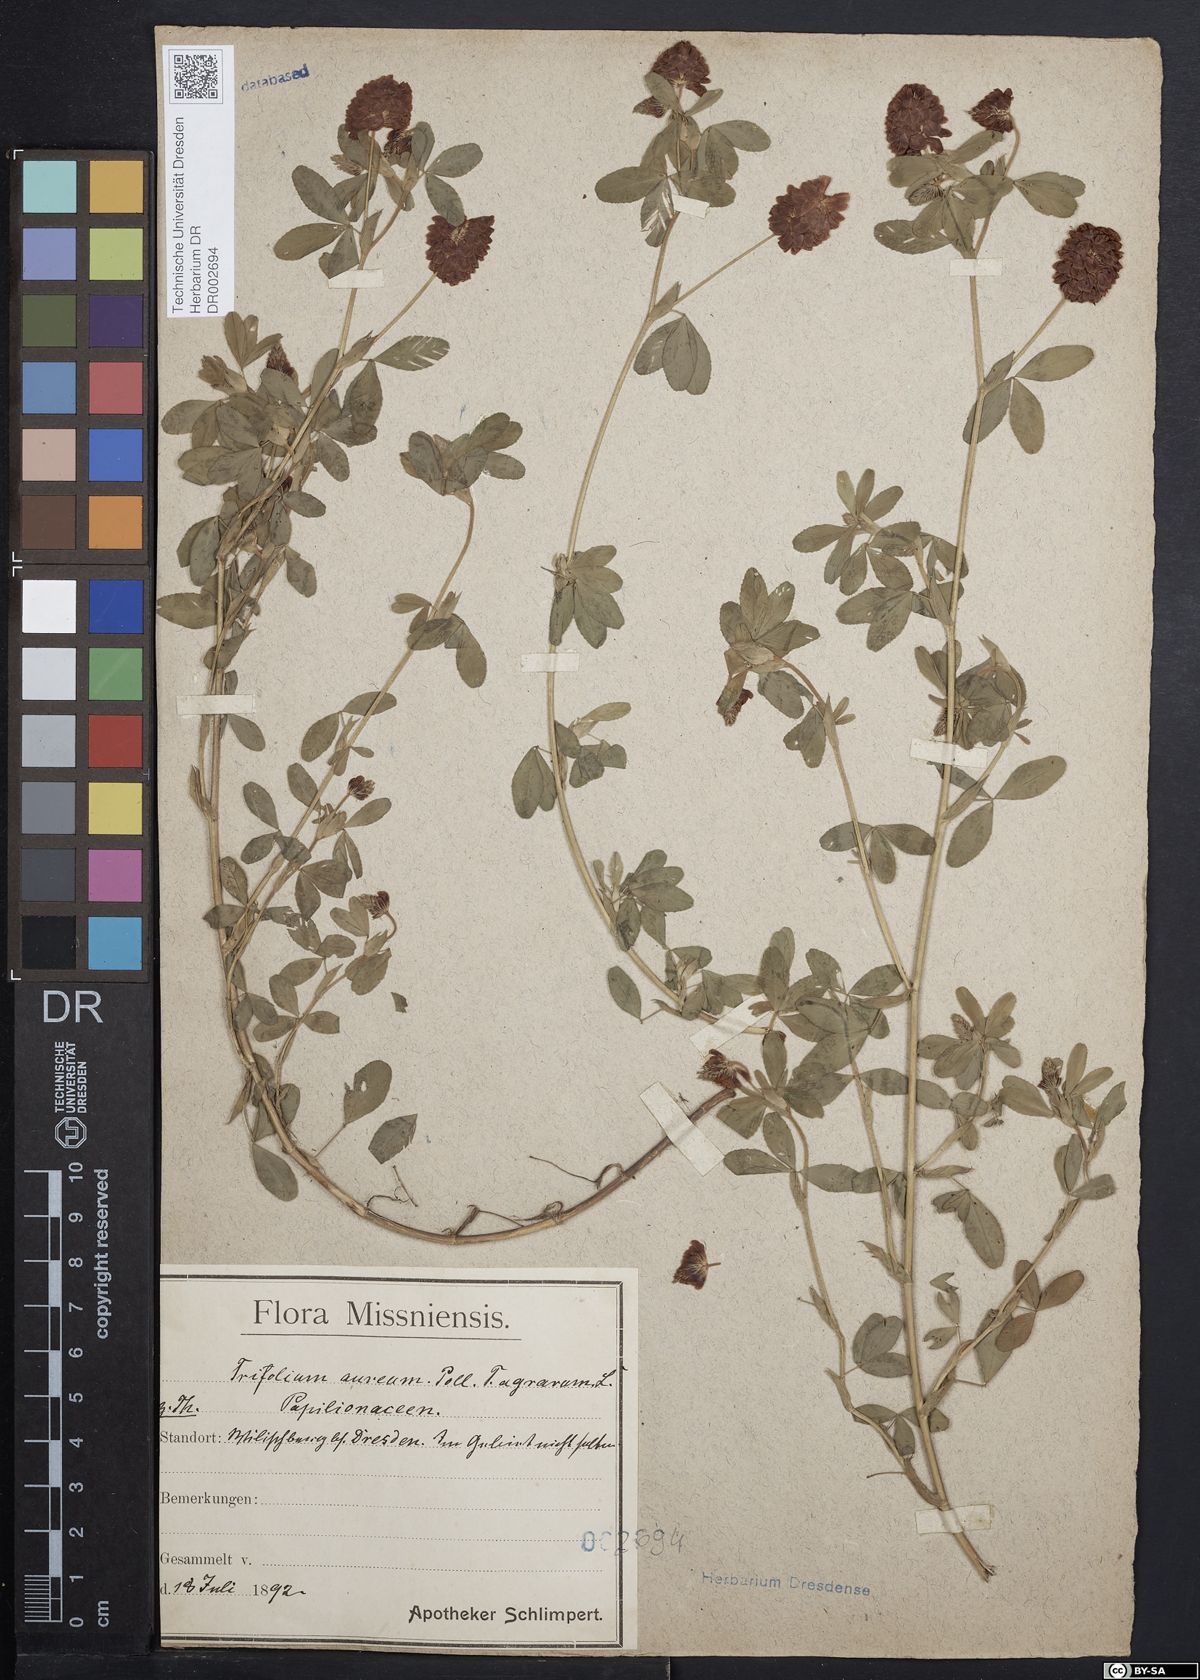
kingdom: Plantae
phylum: Tracheophyta
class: Magnoliopsida
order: Fabales
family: Fabaceae
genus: Trifolium
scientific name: Trifolium aureum
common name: Golden clover
